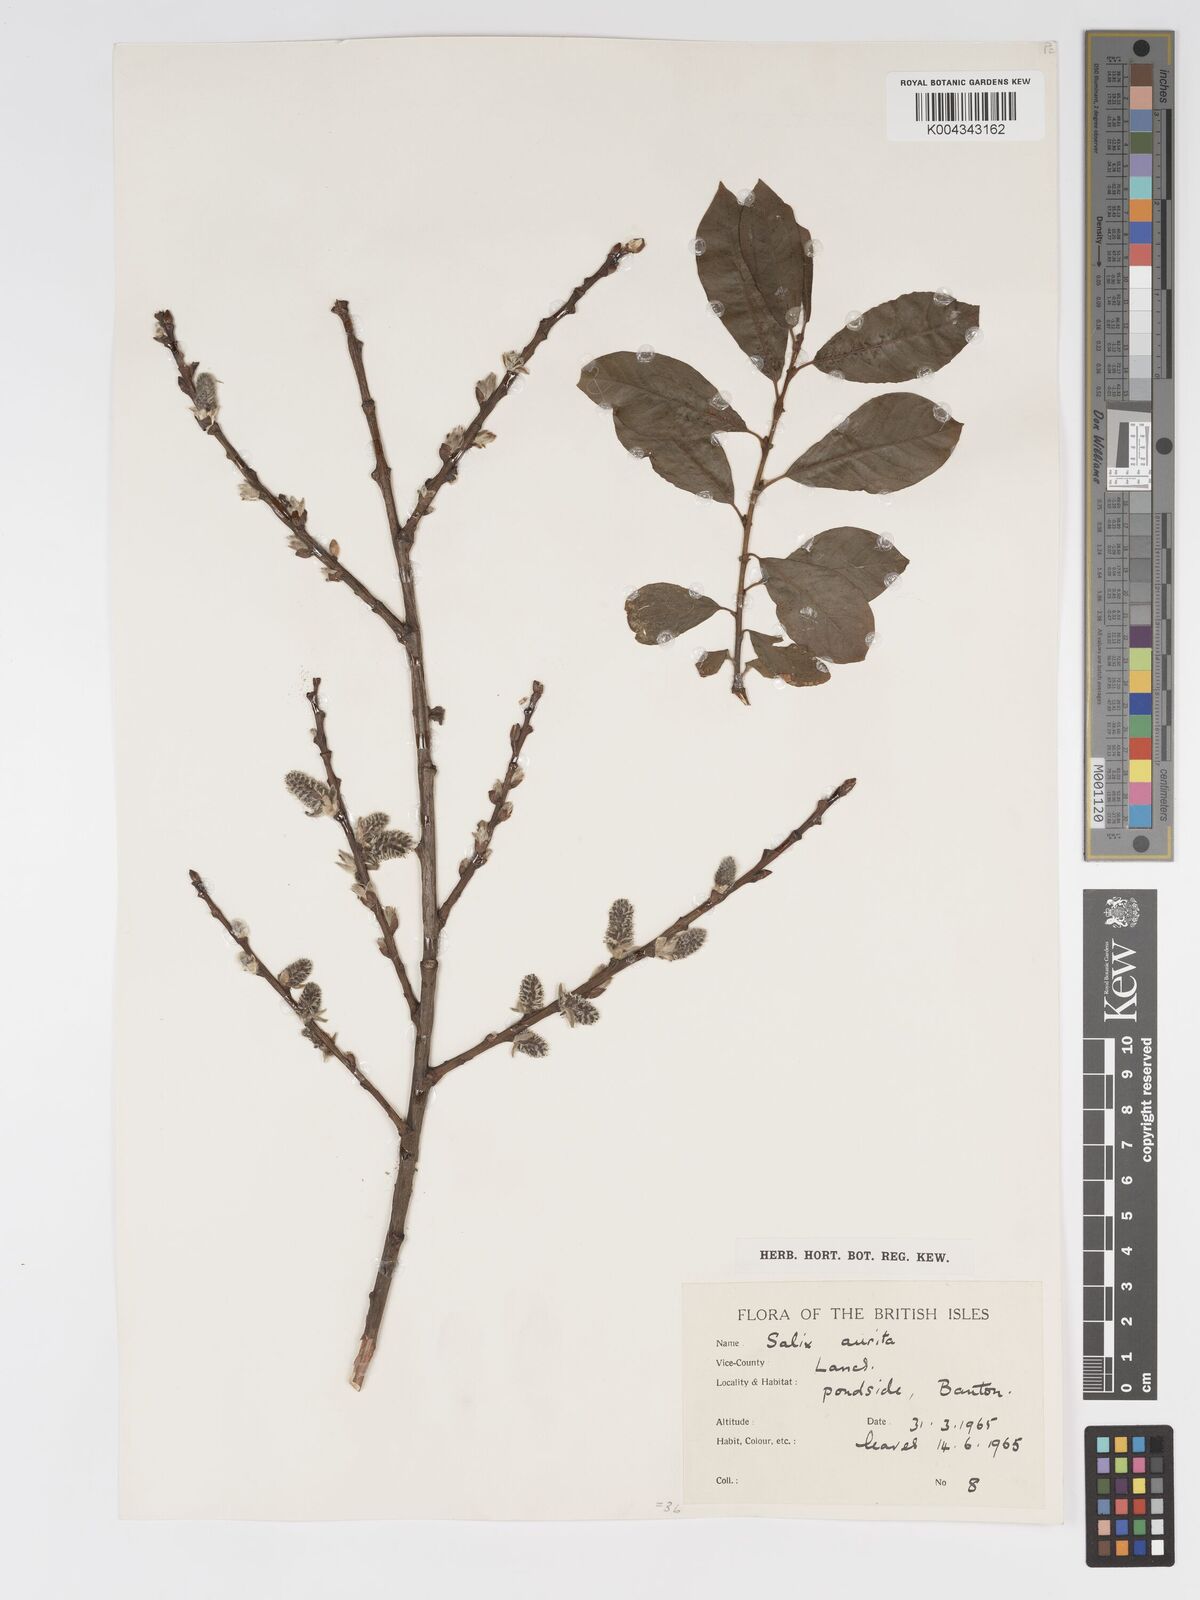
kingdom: Plantae
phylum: Tracheophyta
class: Magnoliopsida
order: Malpighiales
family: Salicaceae
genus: Salix
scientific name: Salix aurita
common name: Eared willow
